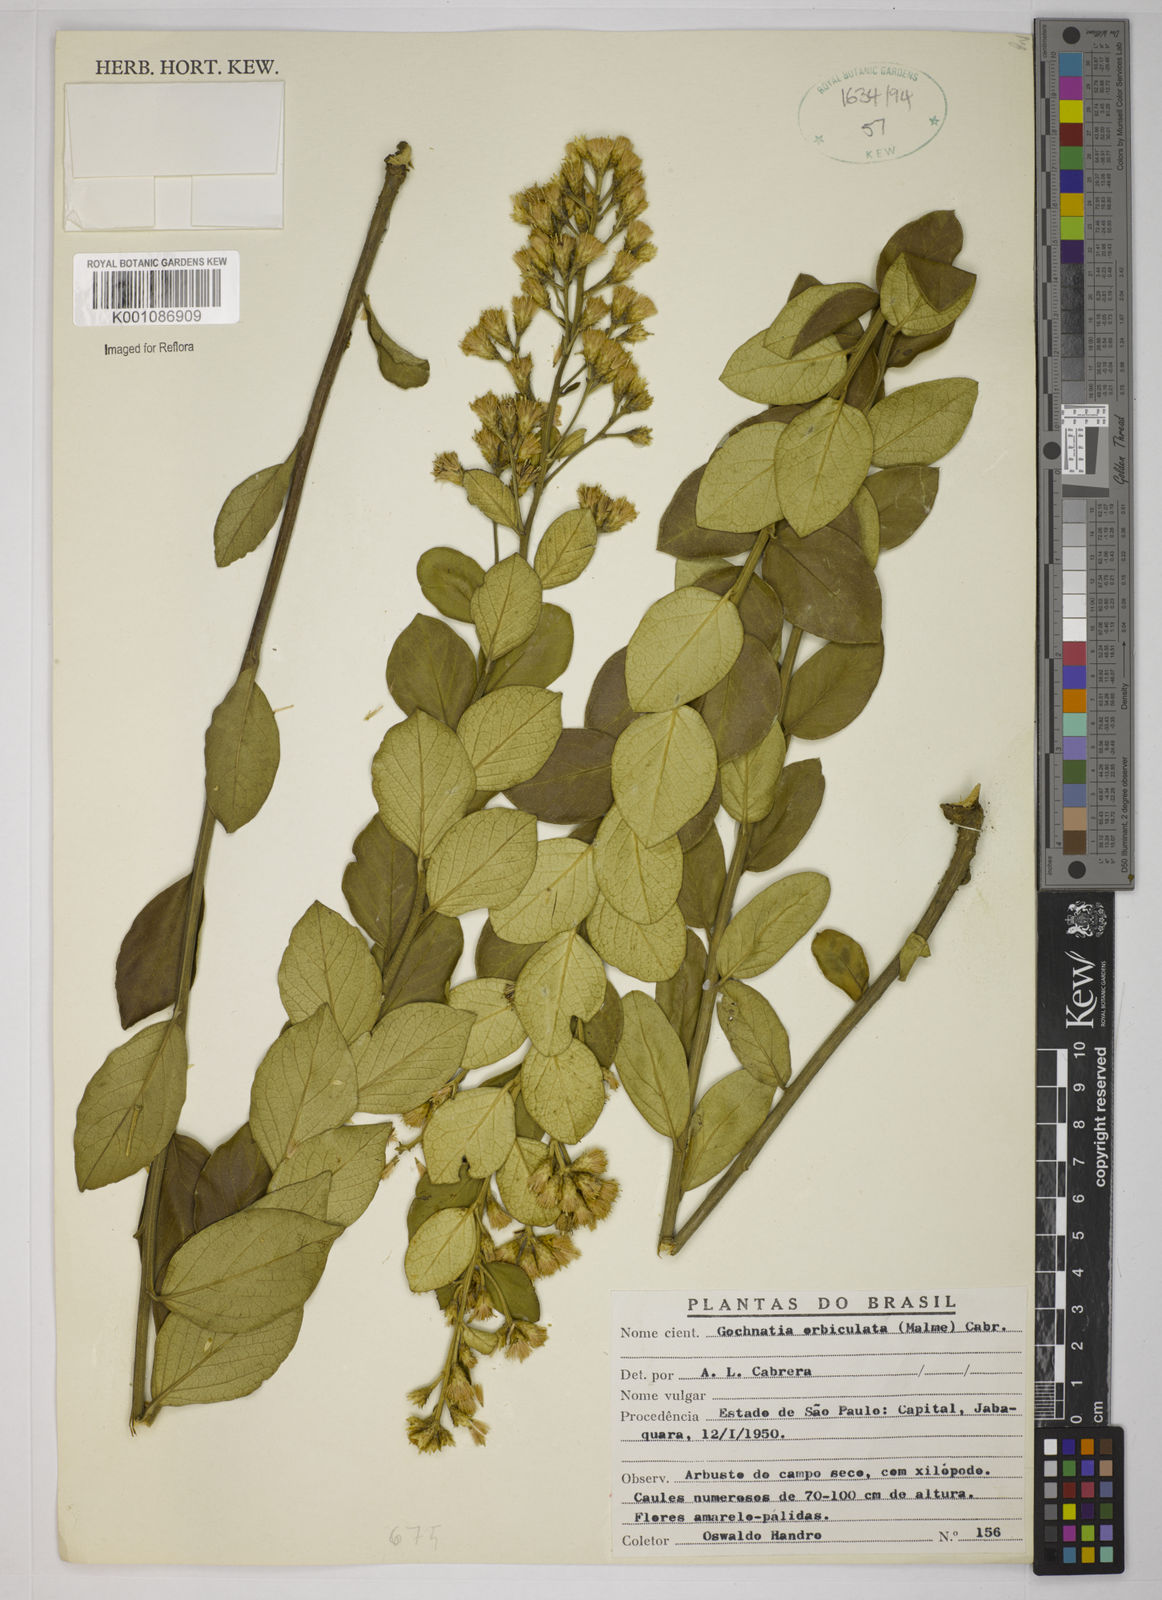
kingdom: Plantae
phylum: Tracheophyta
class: Magnoliopsida
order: Asterales
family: Asteraceae
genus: Moquiniastrum
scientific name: Moquiniastrum cinereum
